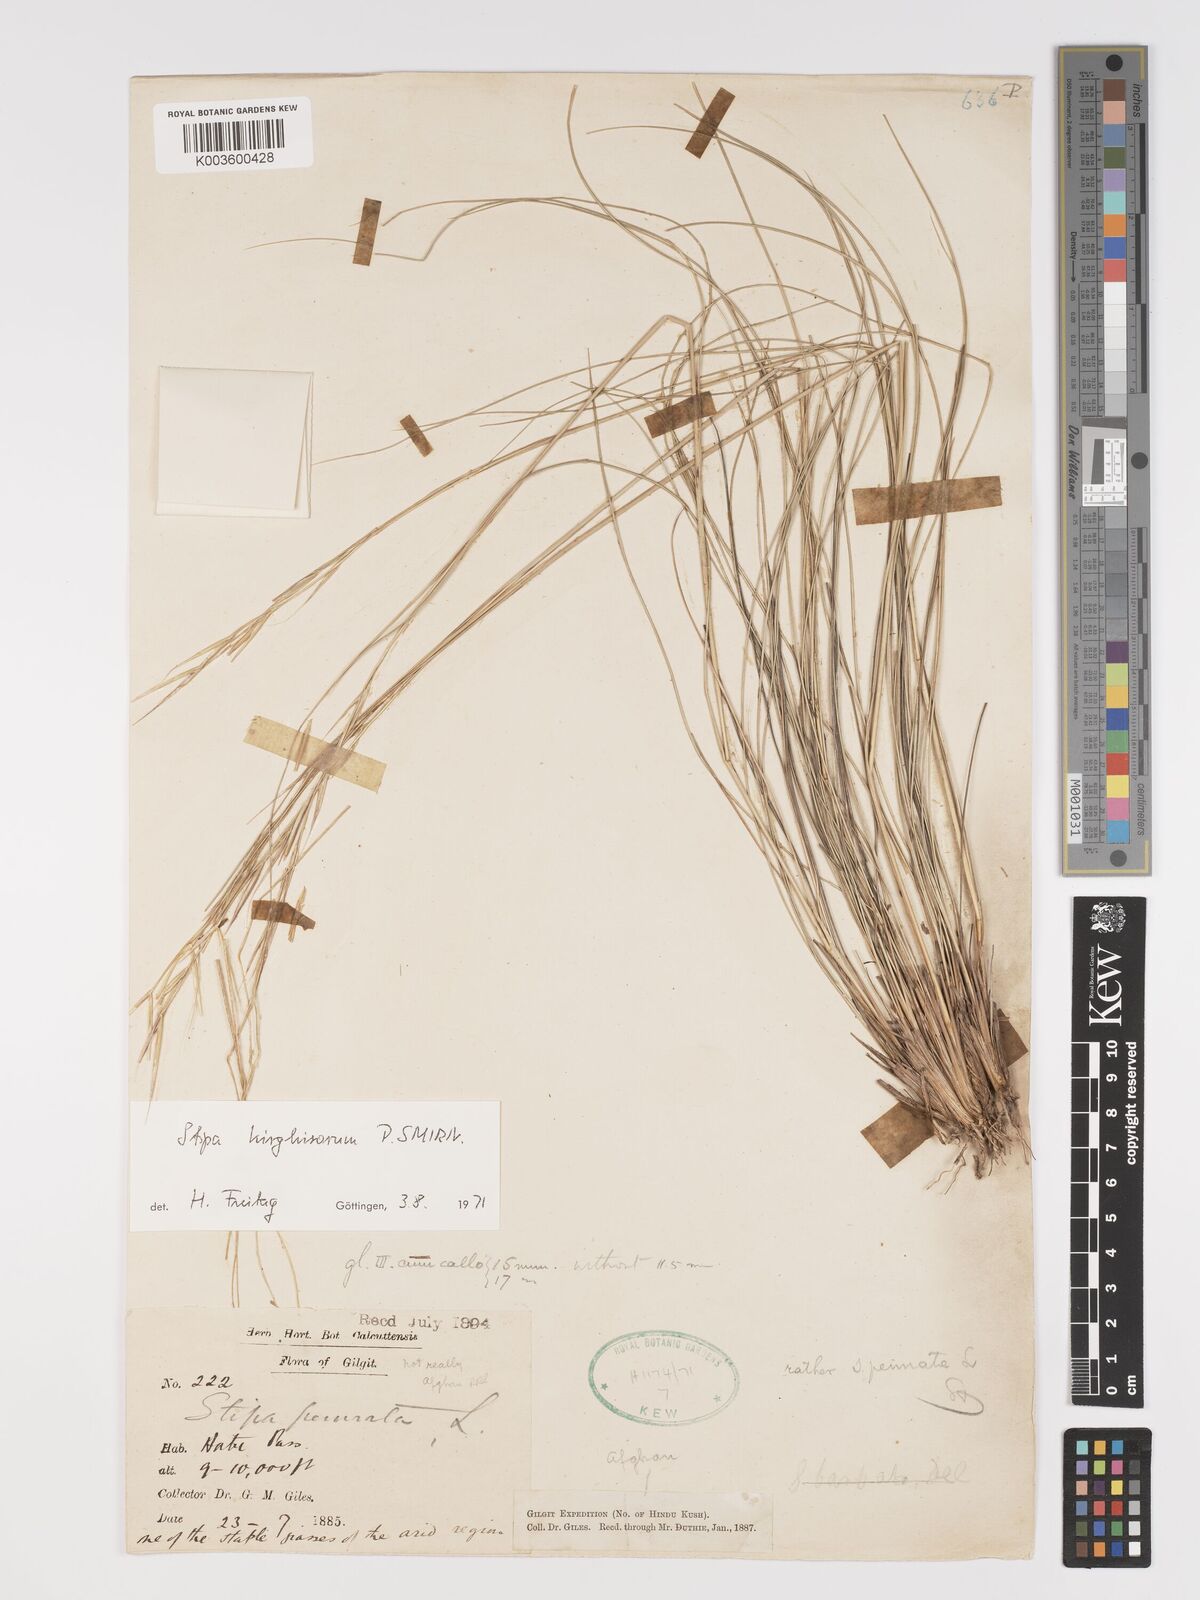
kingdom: Plantae
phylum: Tracheophyta
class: Liliopsida
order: Poales
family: Poaceae
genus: Stipa
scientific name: Stipa kirghisorum
